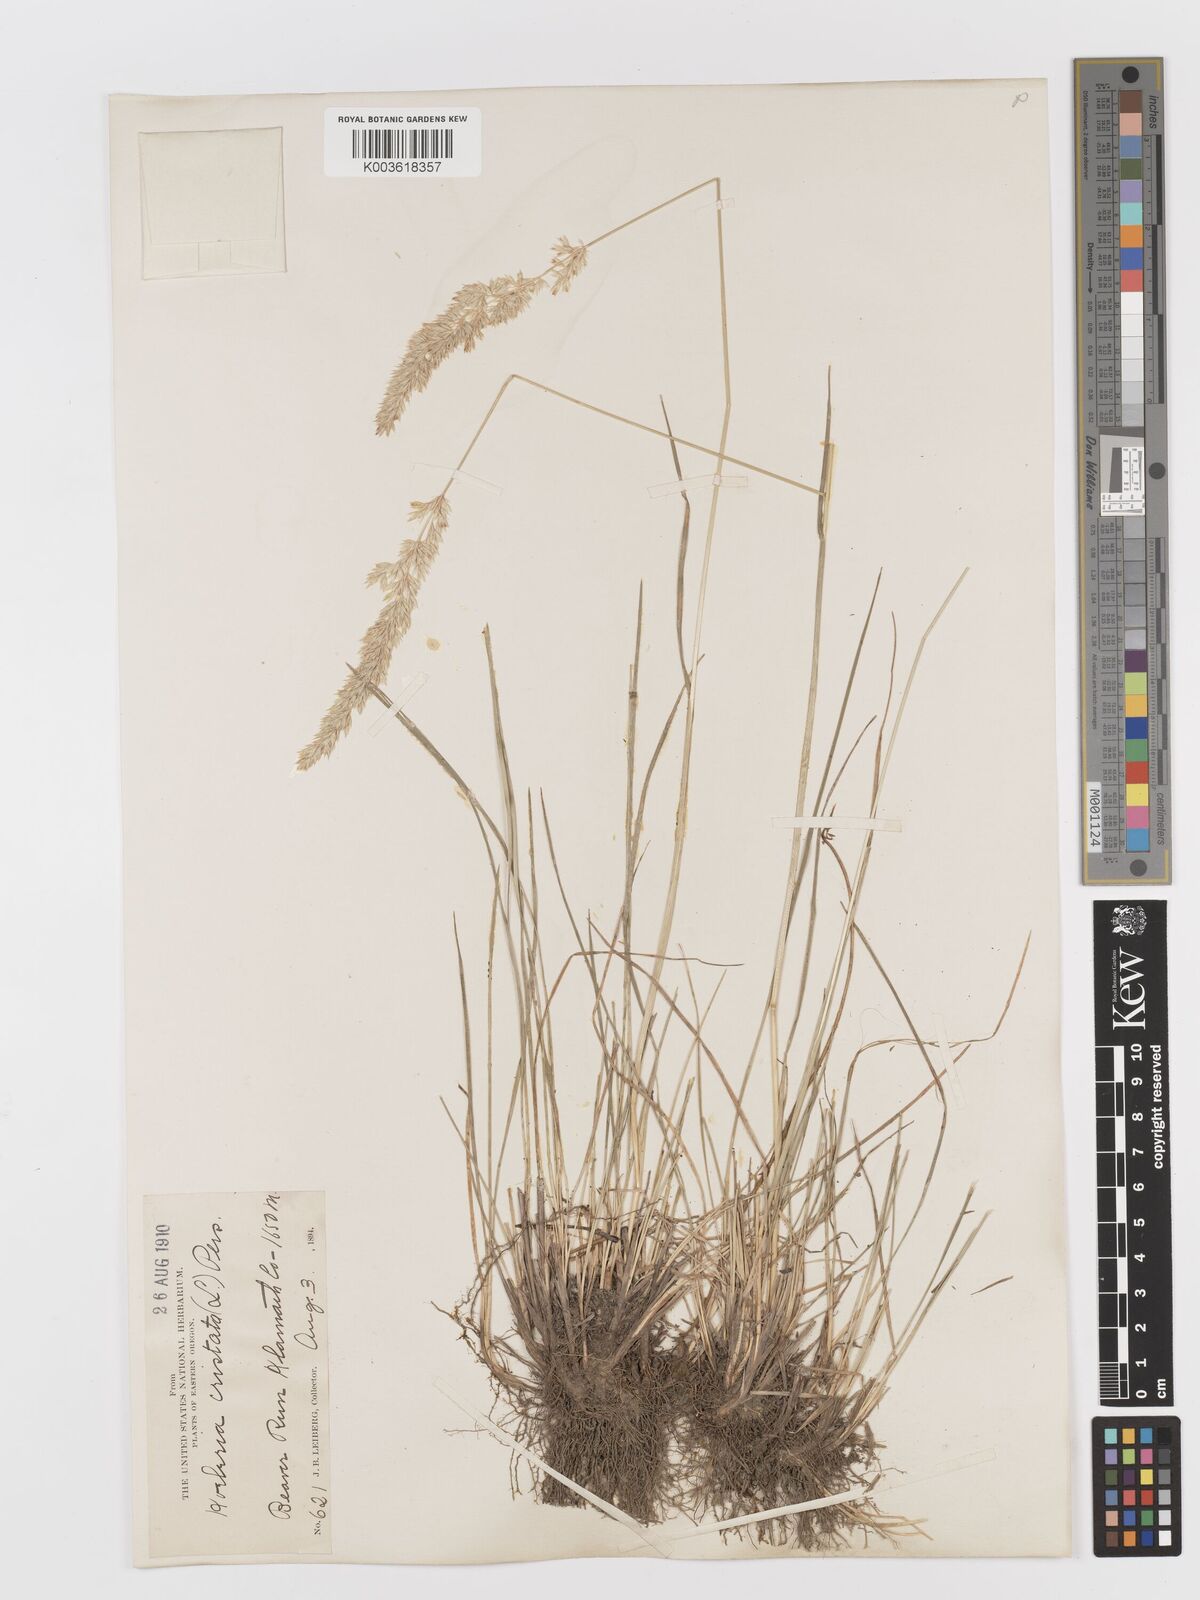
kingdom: Plantae
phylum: Tracheophyta
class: Liliopsida
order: Poales
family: Poaceae
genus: Koeleria
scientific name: Koeleria
